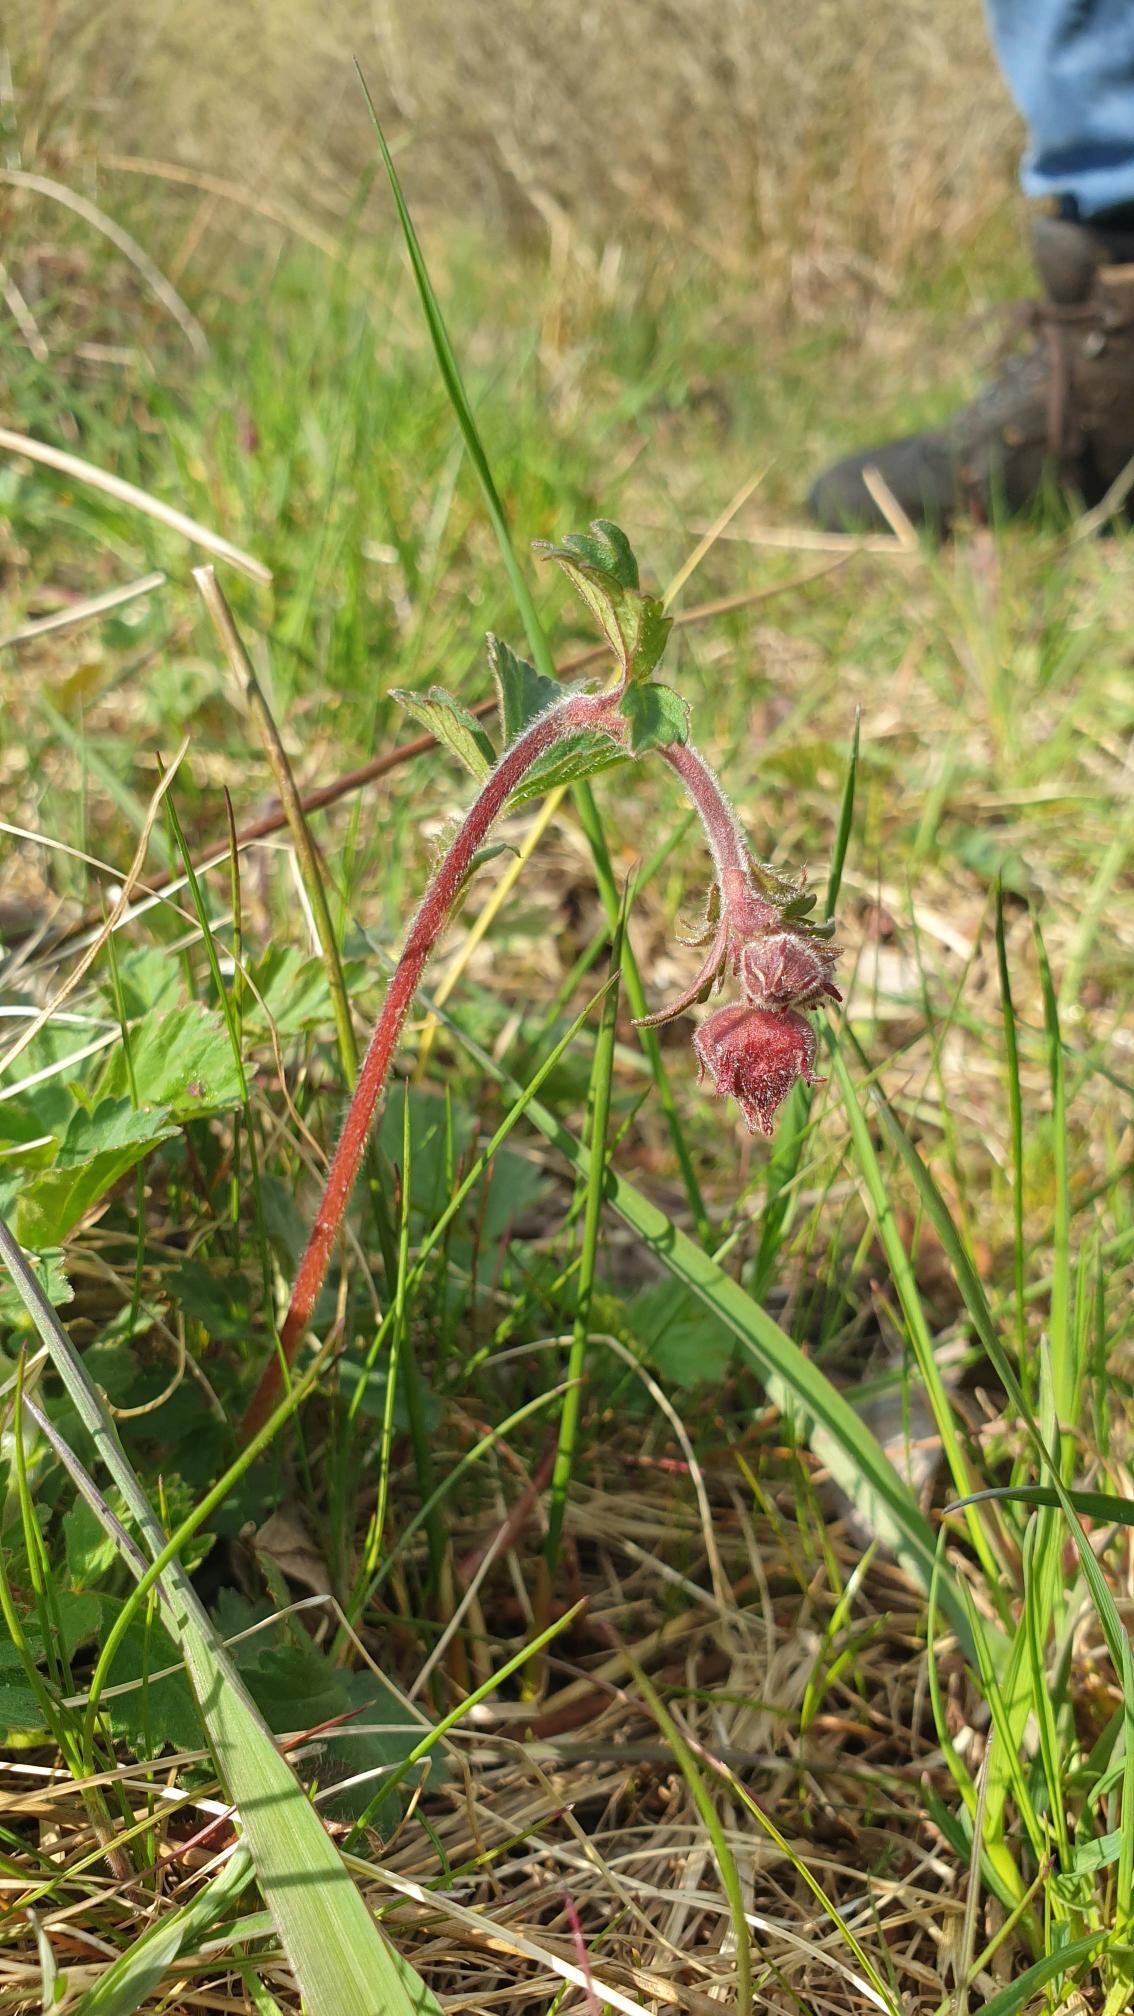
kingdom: Plantae
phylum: Tracheophyta
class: Magnoliopsida
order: Rosales
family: Rosaceae
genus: Geum
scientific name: Geum rivale
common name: Eng-nellikerod
